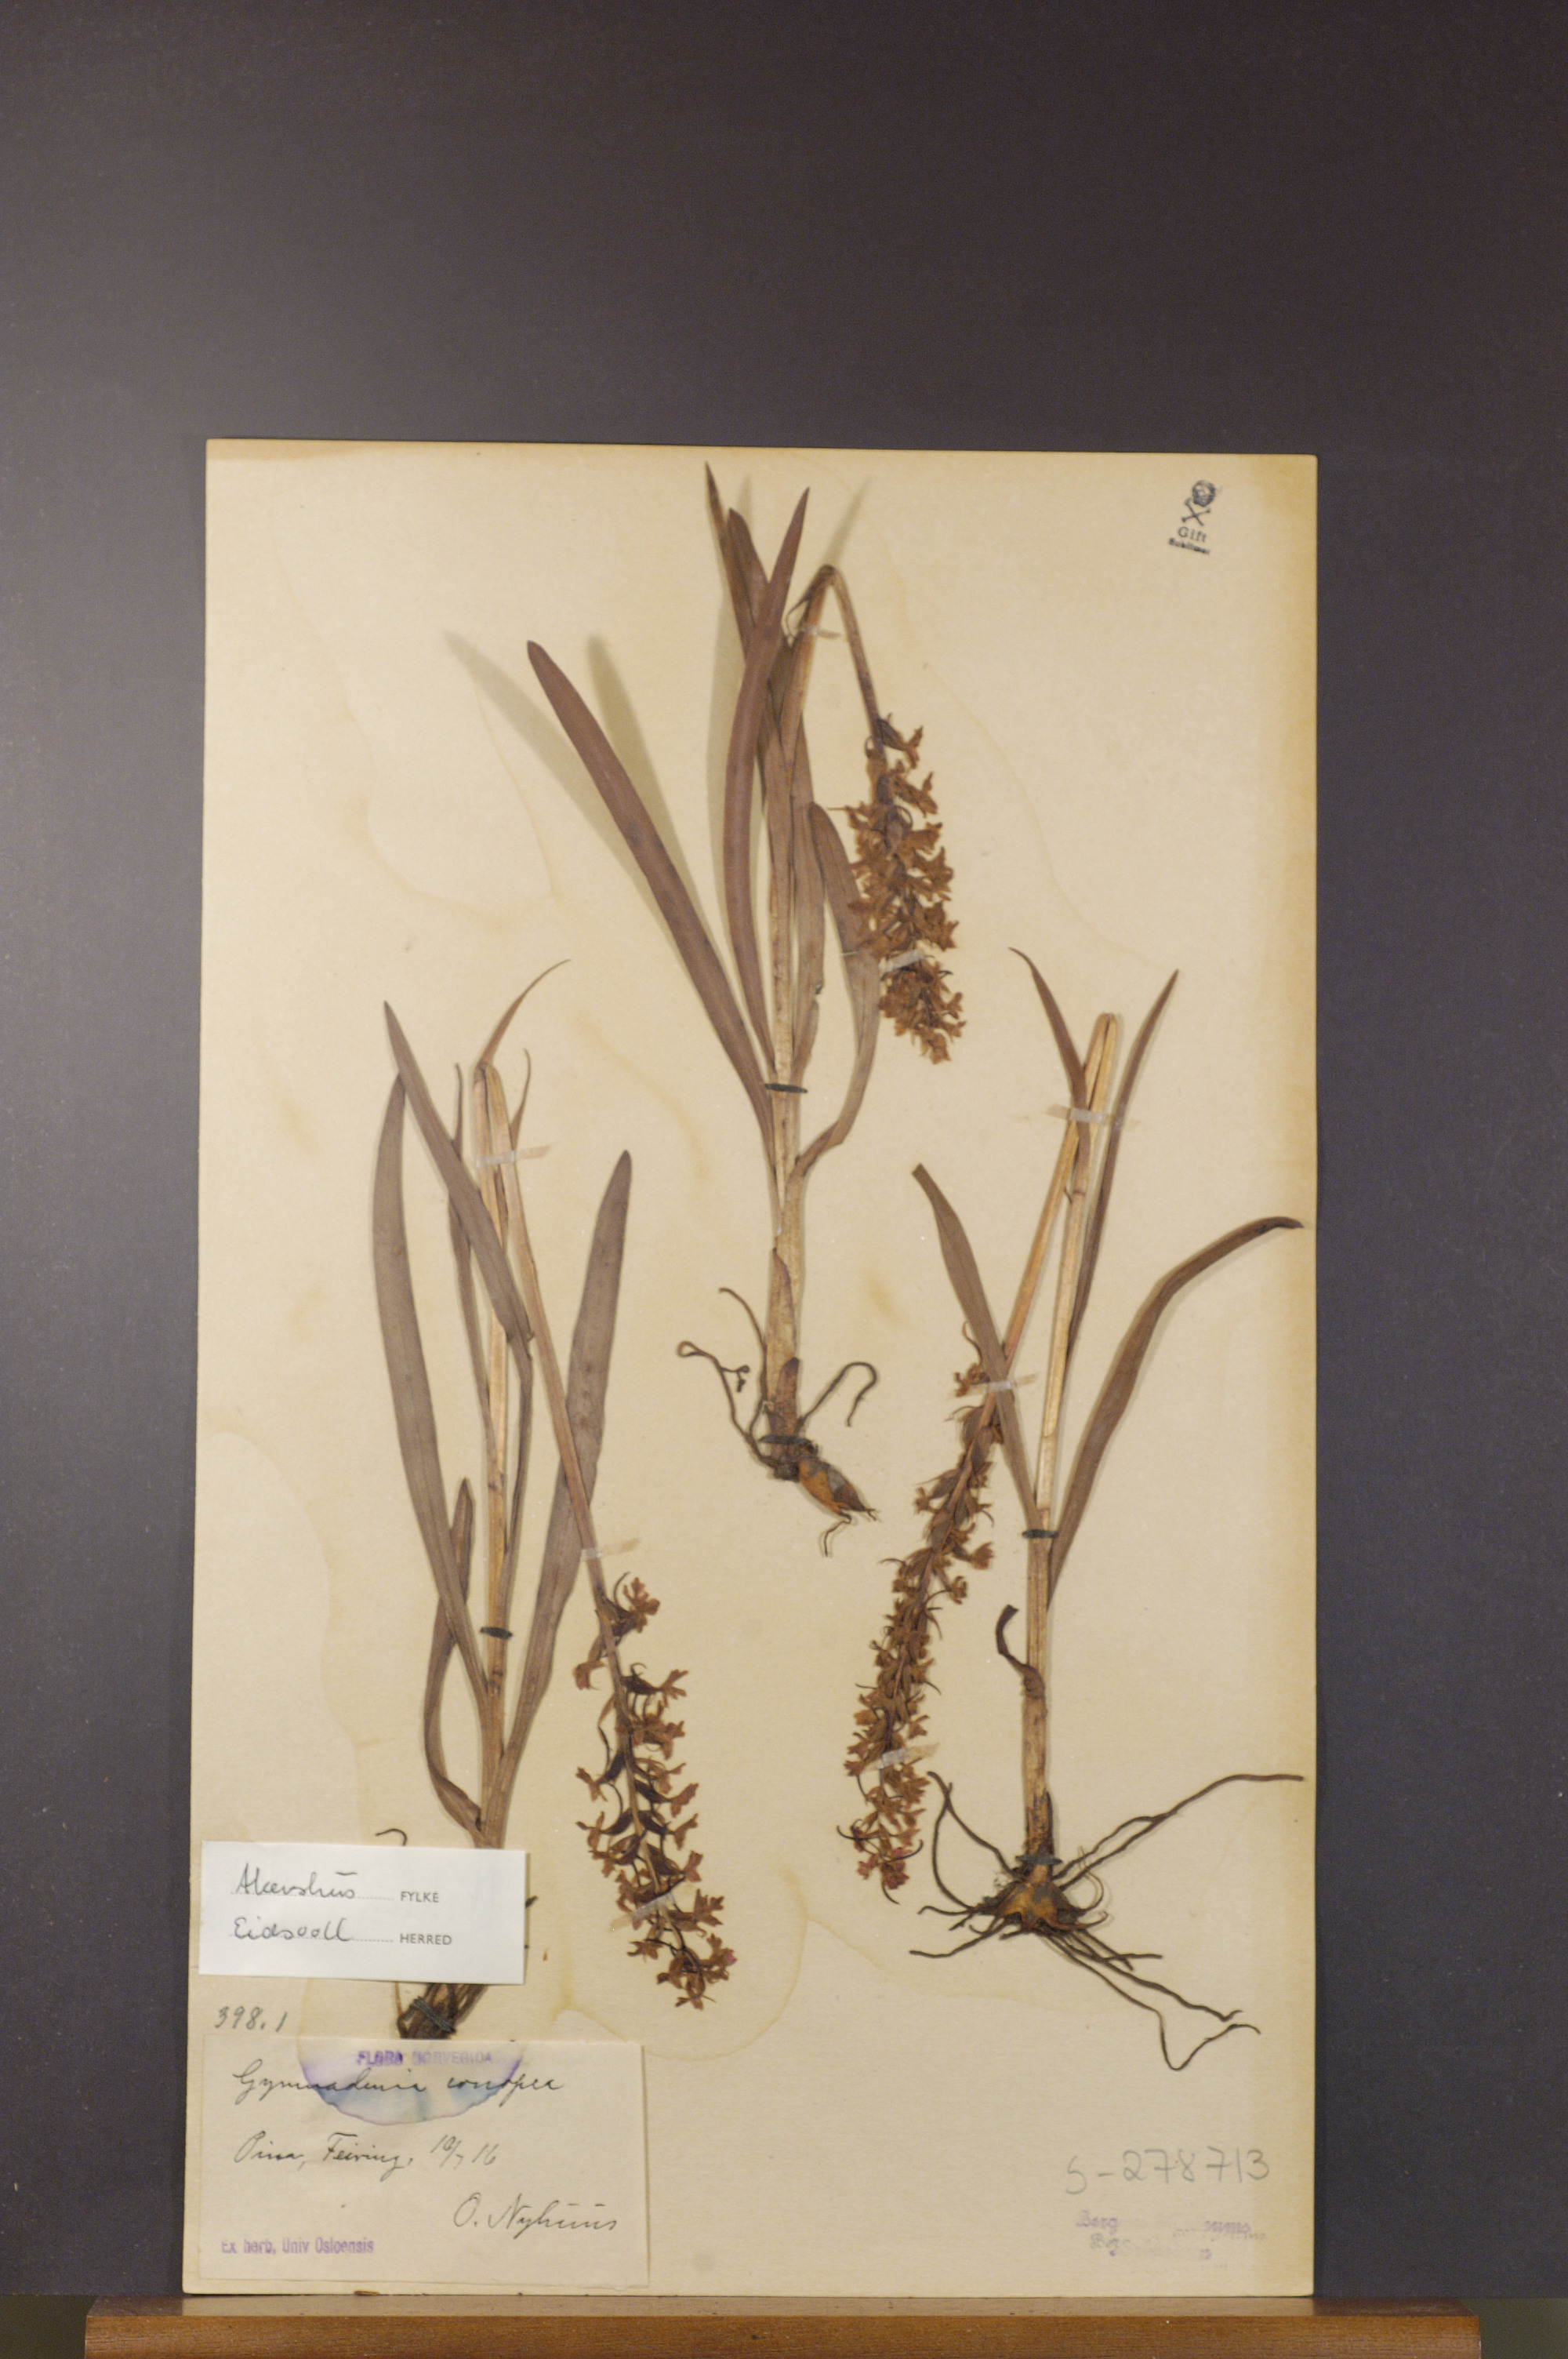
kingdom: Plantae
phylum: Tracheophyta
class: Liliopsida
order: Asparagales
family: Orchidaceae
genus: Gymnadenia
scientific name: Gymnadenia conopsea
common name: Fragrant orchid
